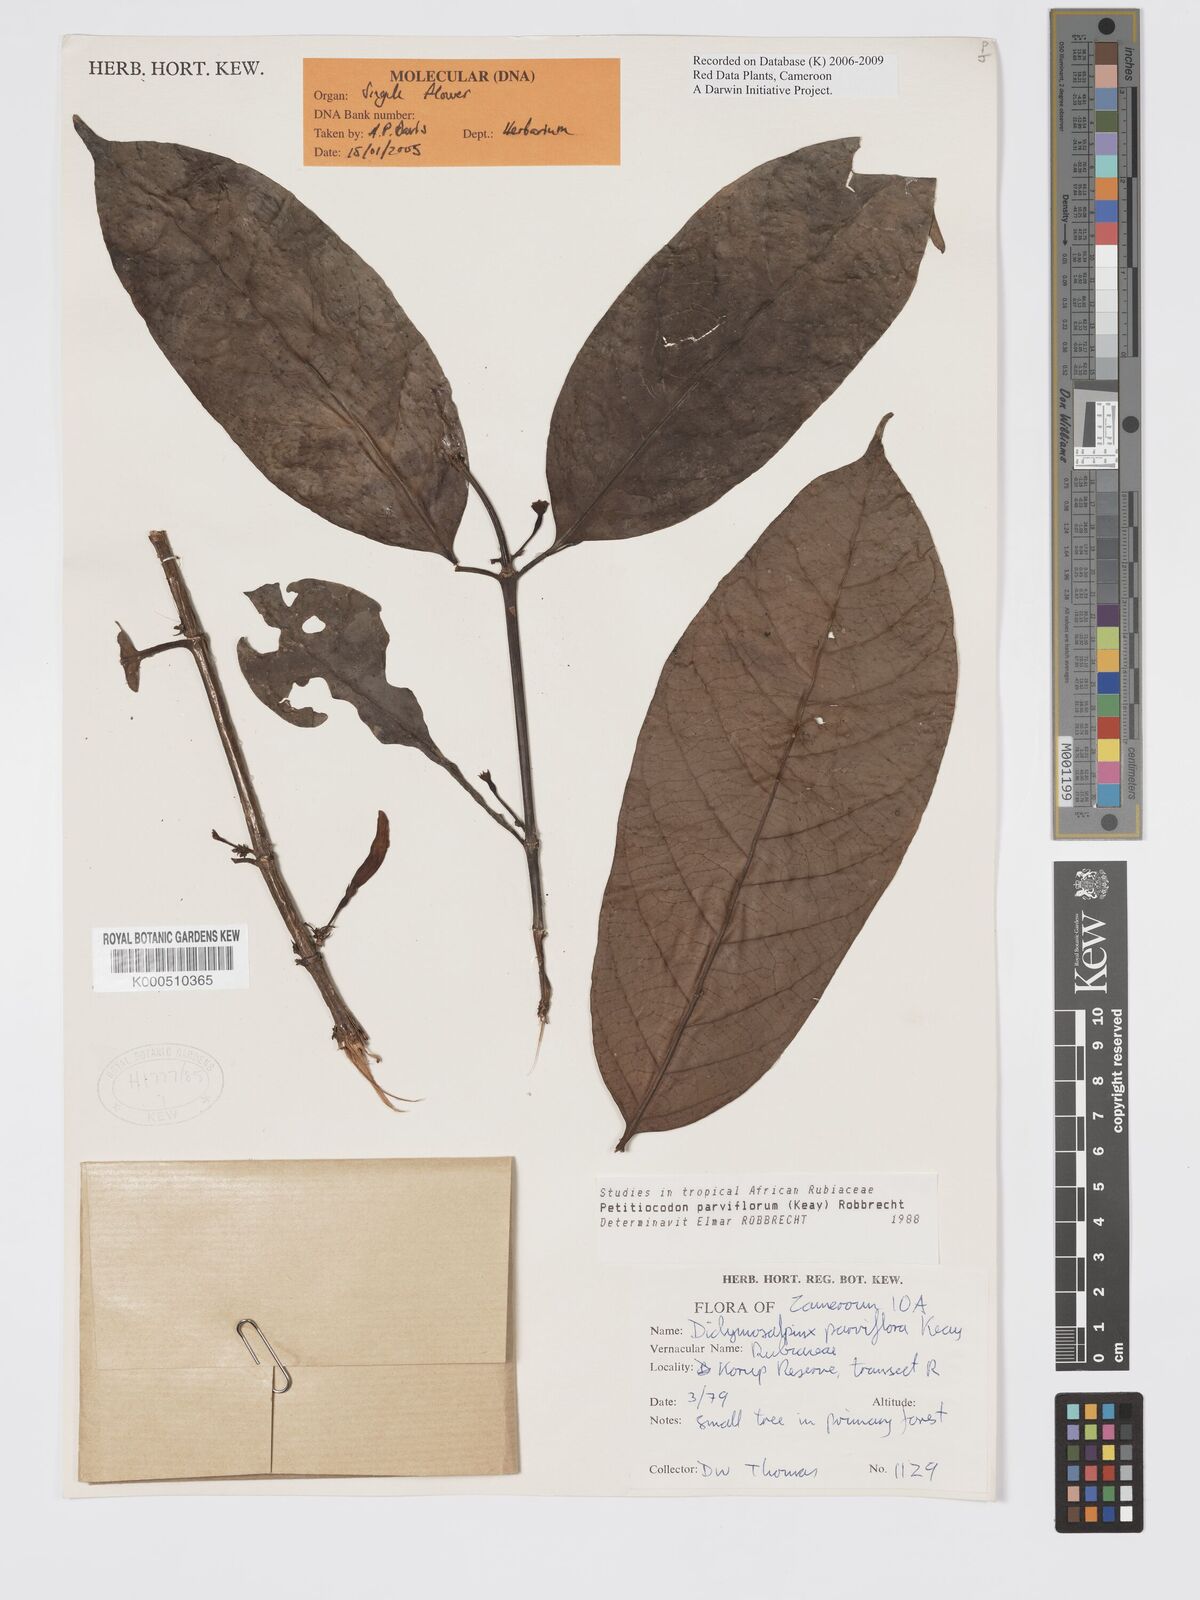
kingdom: Plantae
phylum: Tracheophyta
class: Magnoliopsida
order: Gentianales
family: Rubiaceae
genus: Petitiocodon
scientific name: Petitiocodon parviflorum
